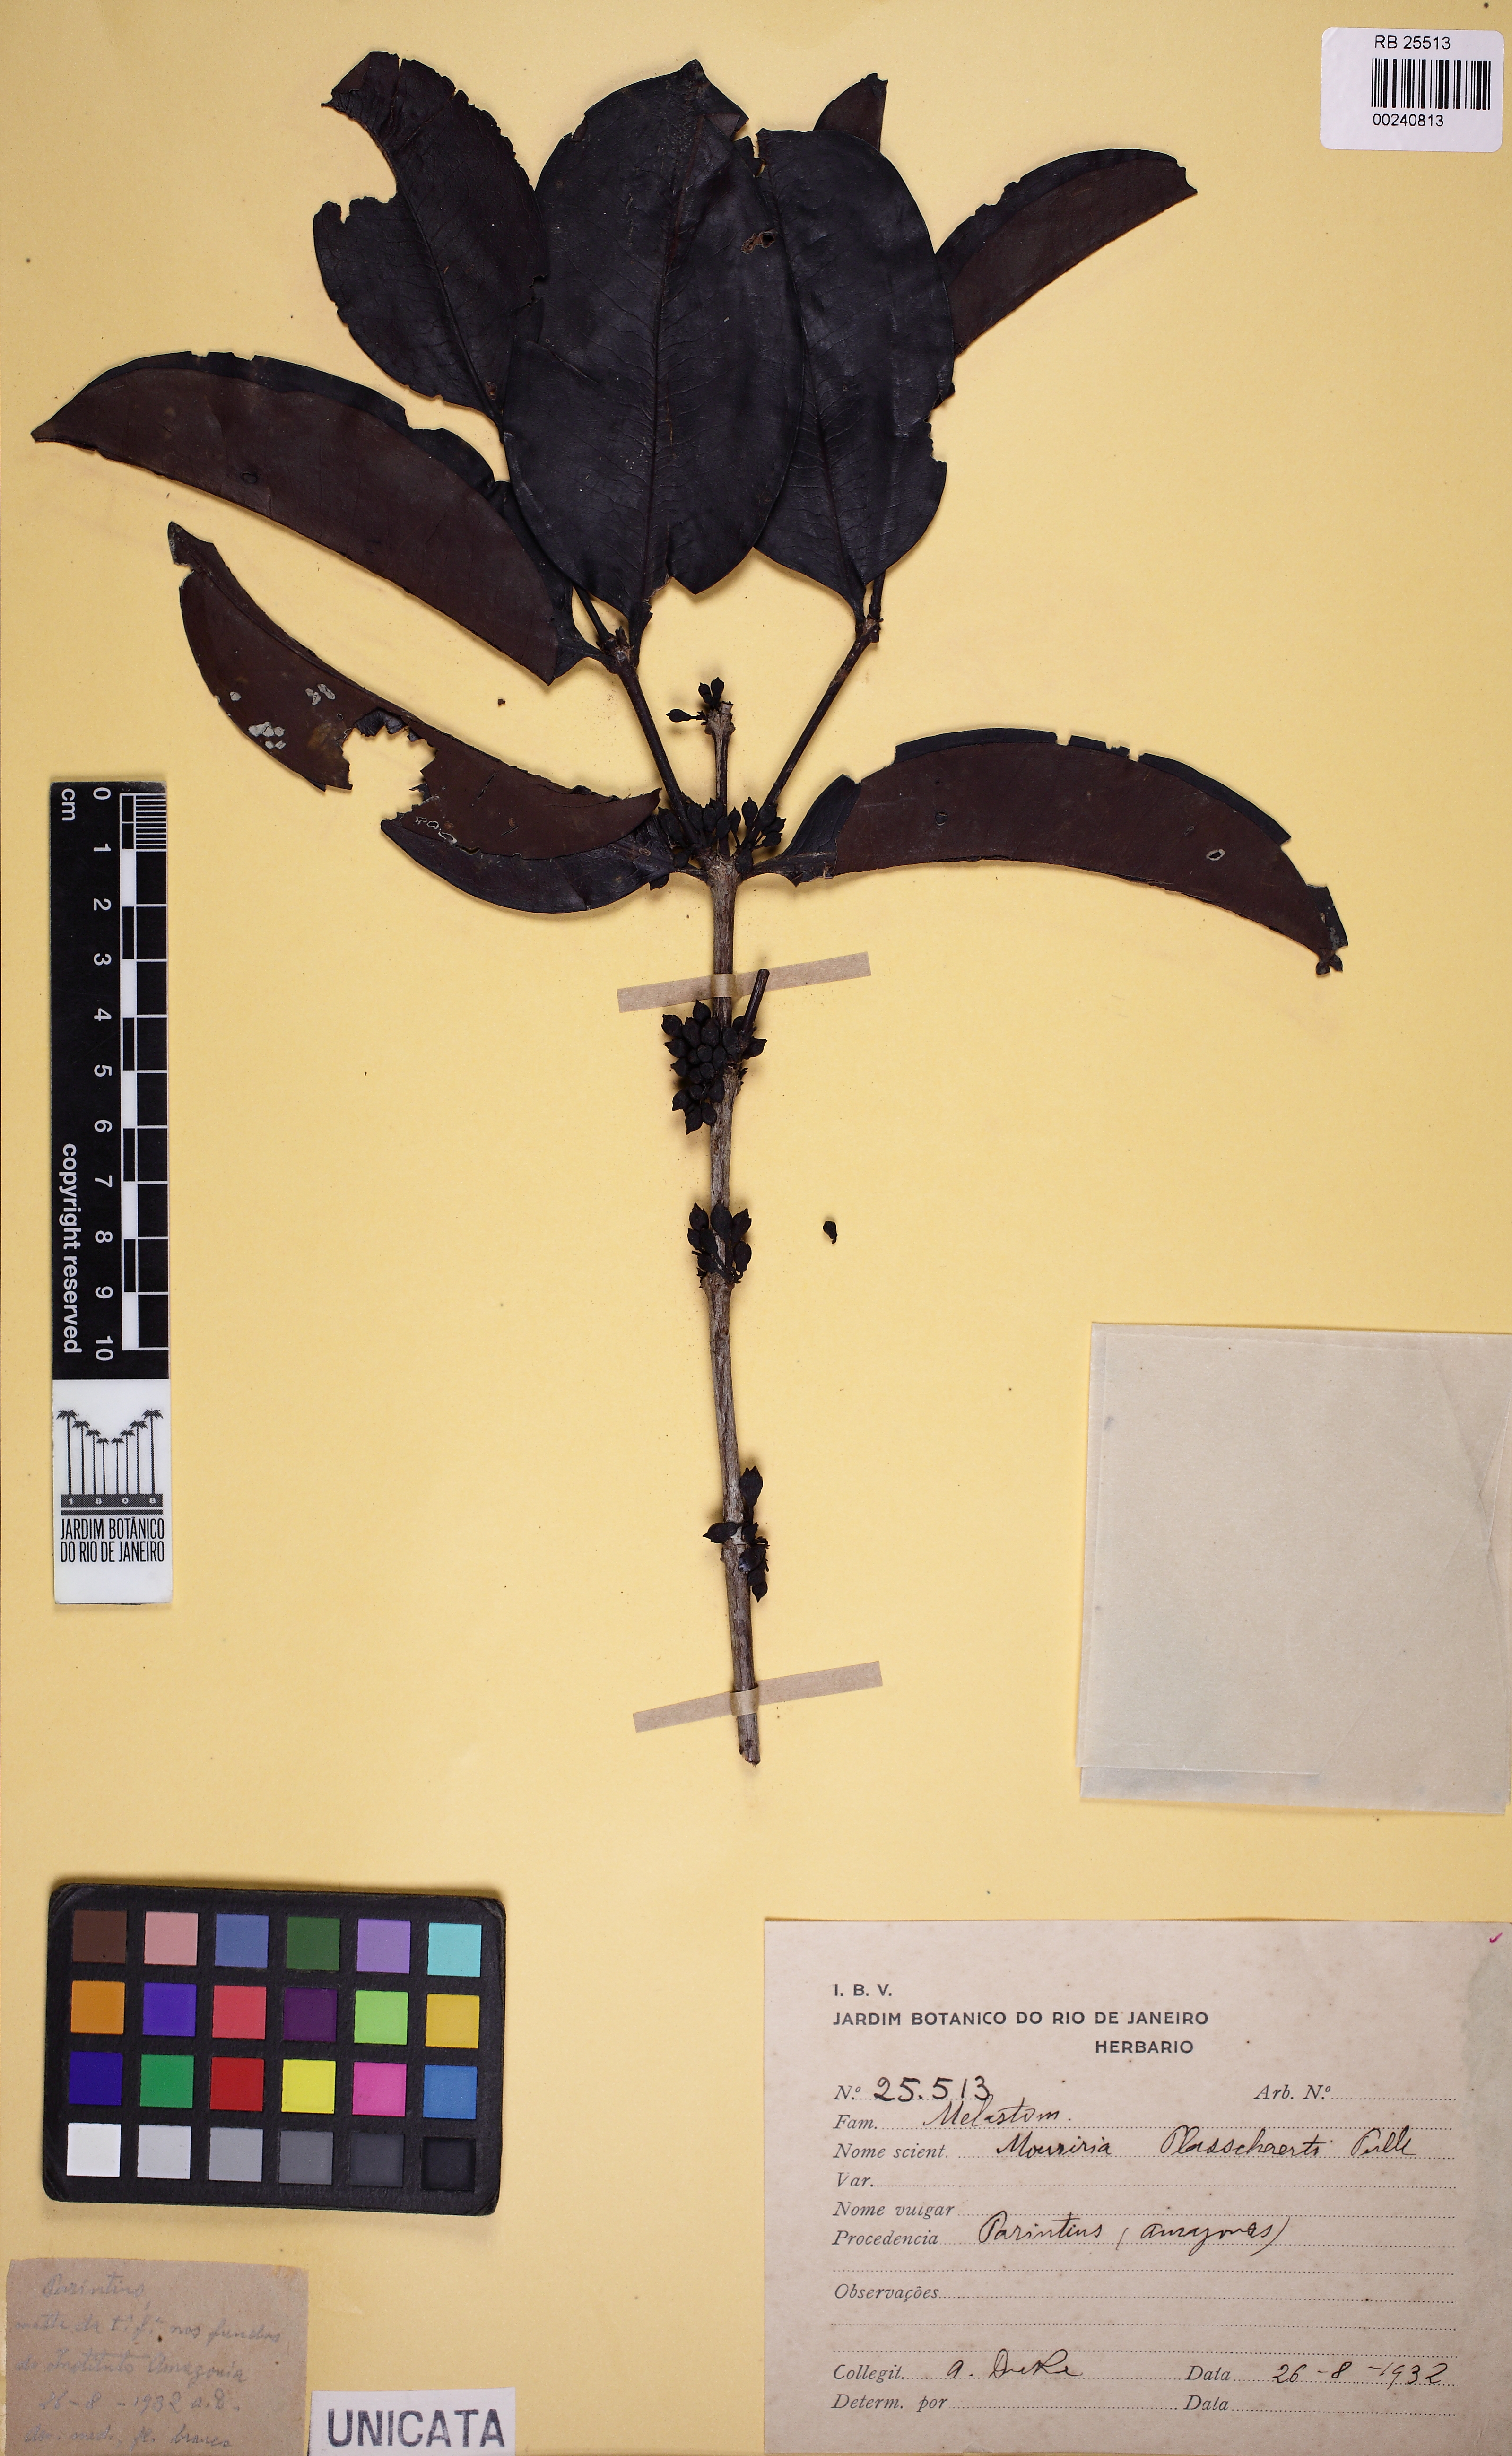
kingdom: Plantae
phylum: Tracheophyta
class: Magnoliopsida
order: Myrtales
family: Melastomataceae
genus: Mouriri
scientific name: Mouriri nigra
